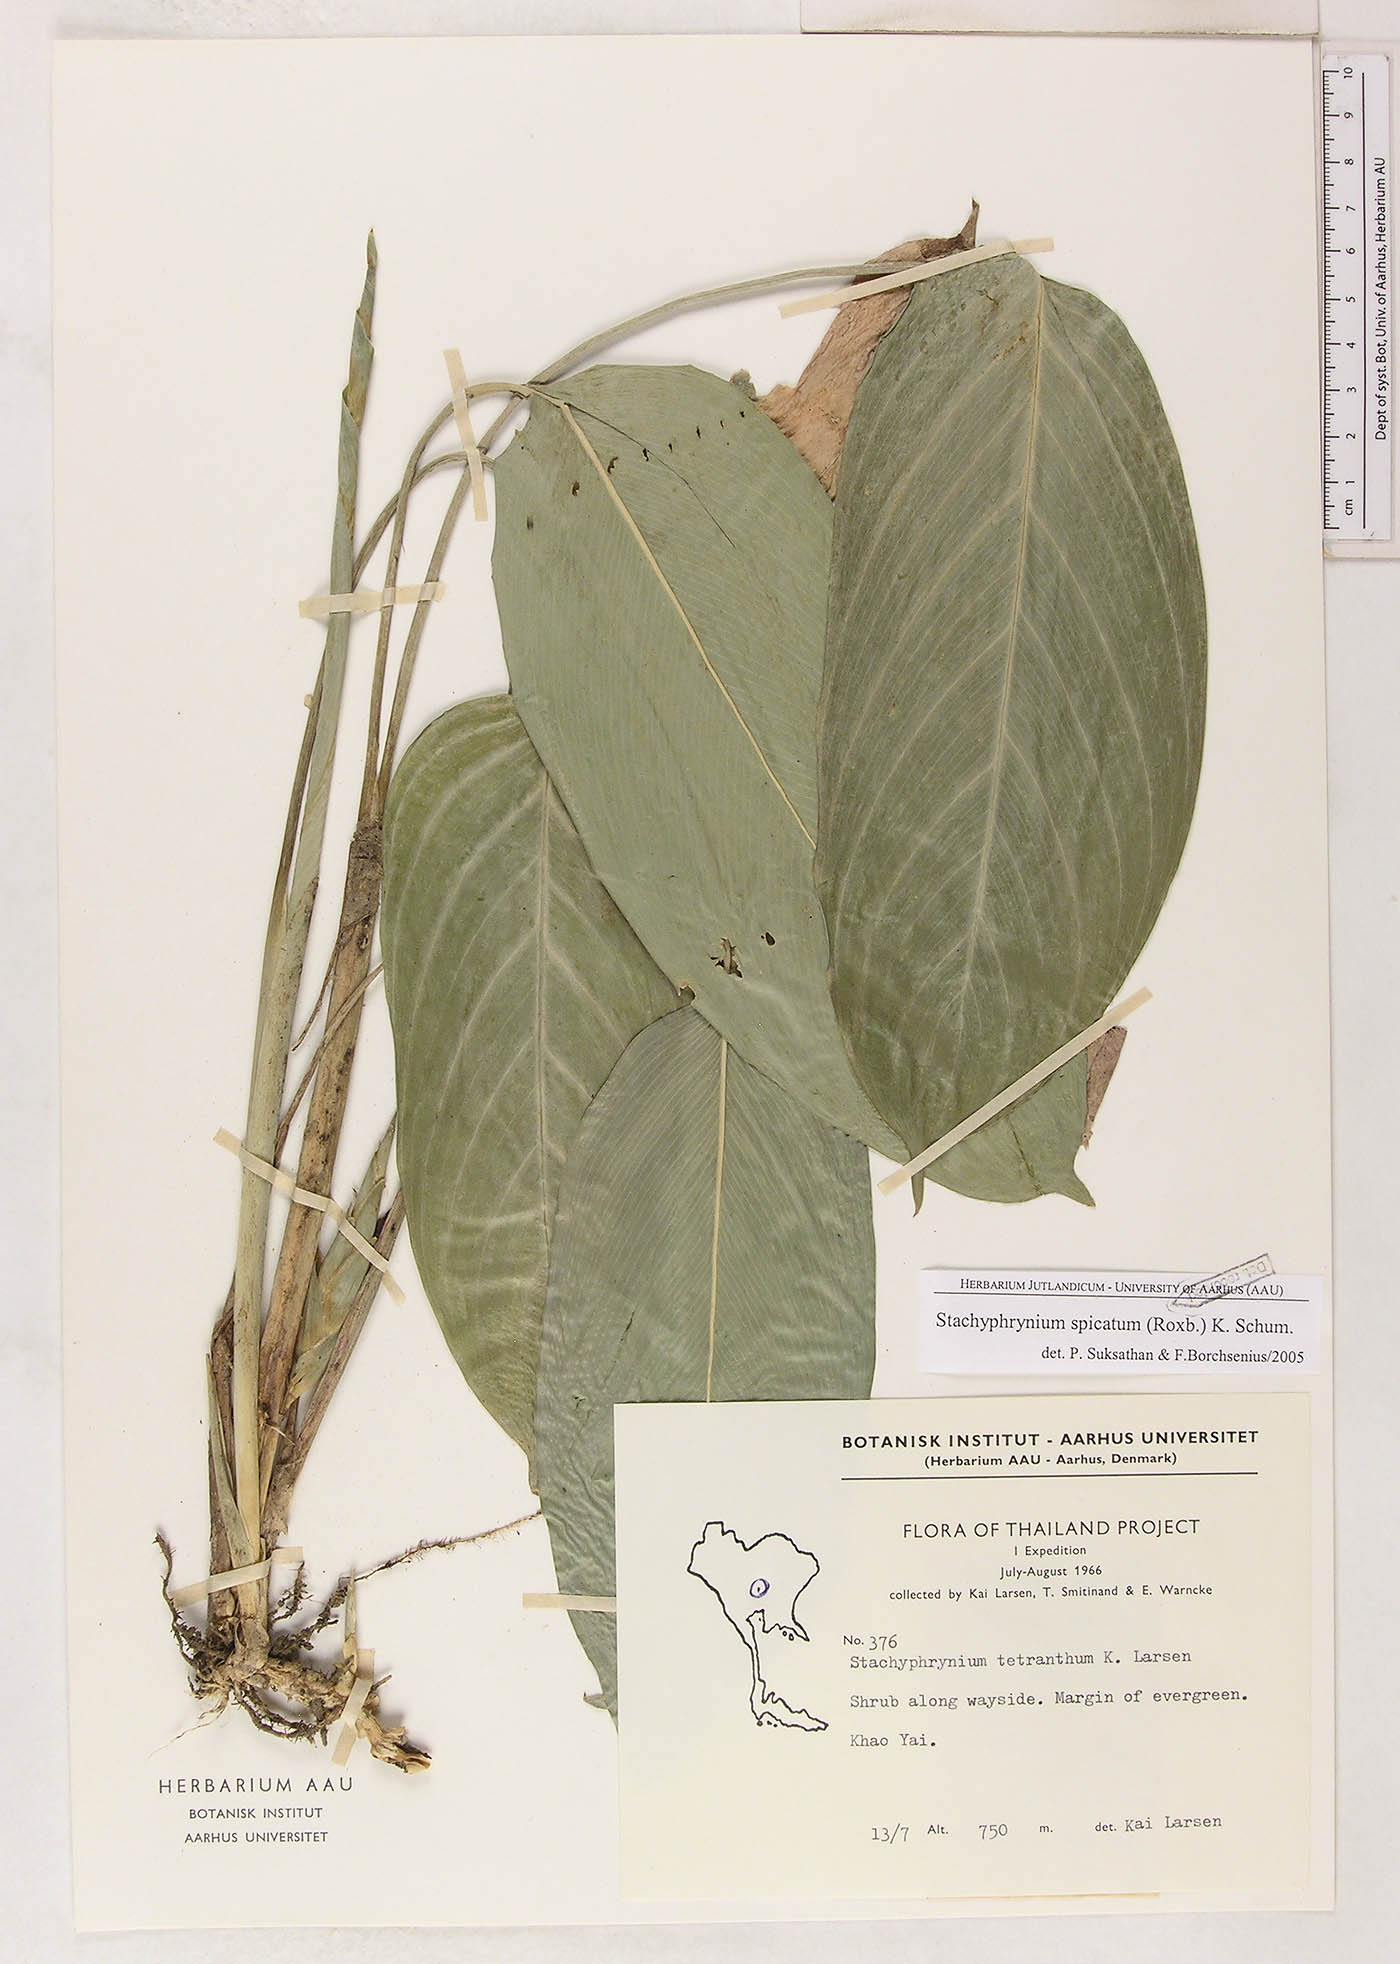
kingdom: Plantae
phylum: Tracheophyta
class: Liliopsida
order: Zingiberales
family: Marantaceae
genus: Stachyphrynium
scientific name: Stachyphrynium spicatum
